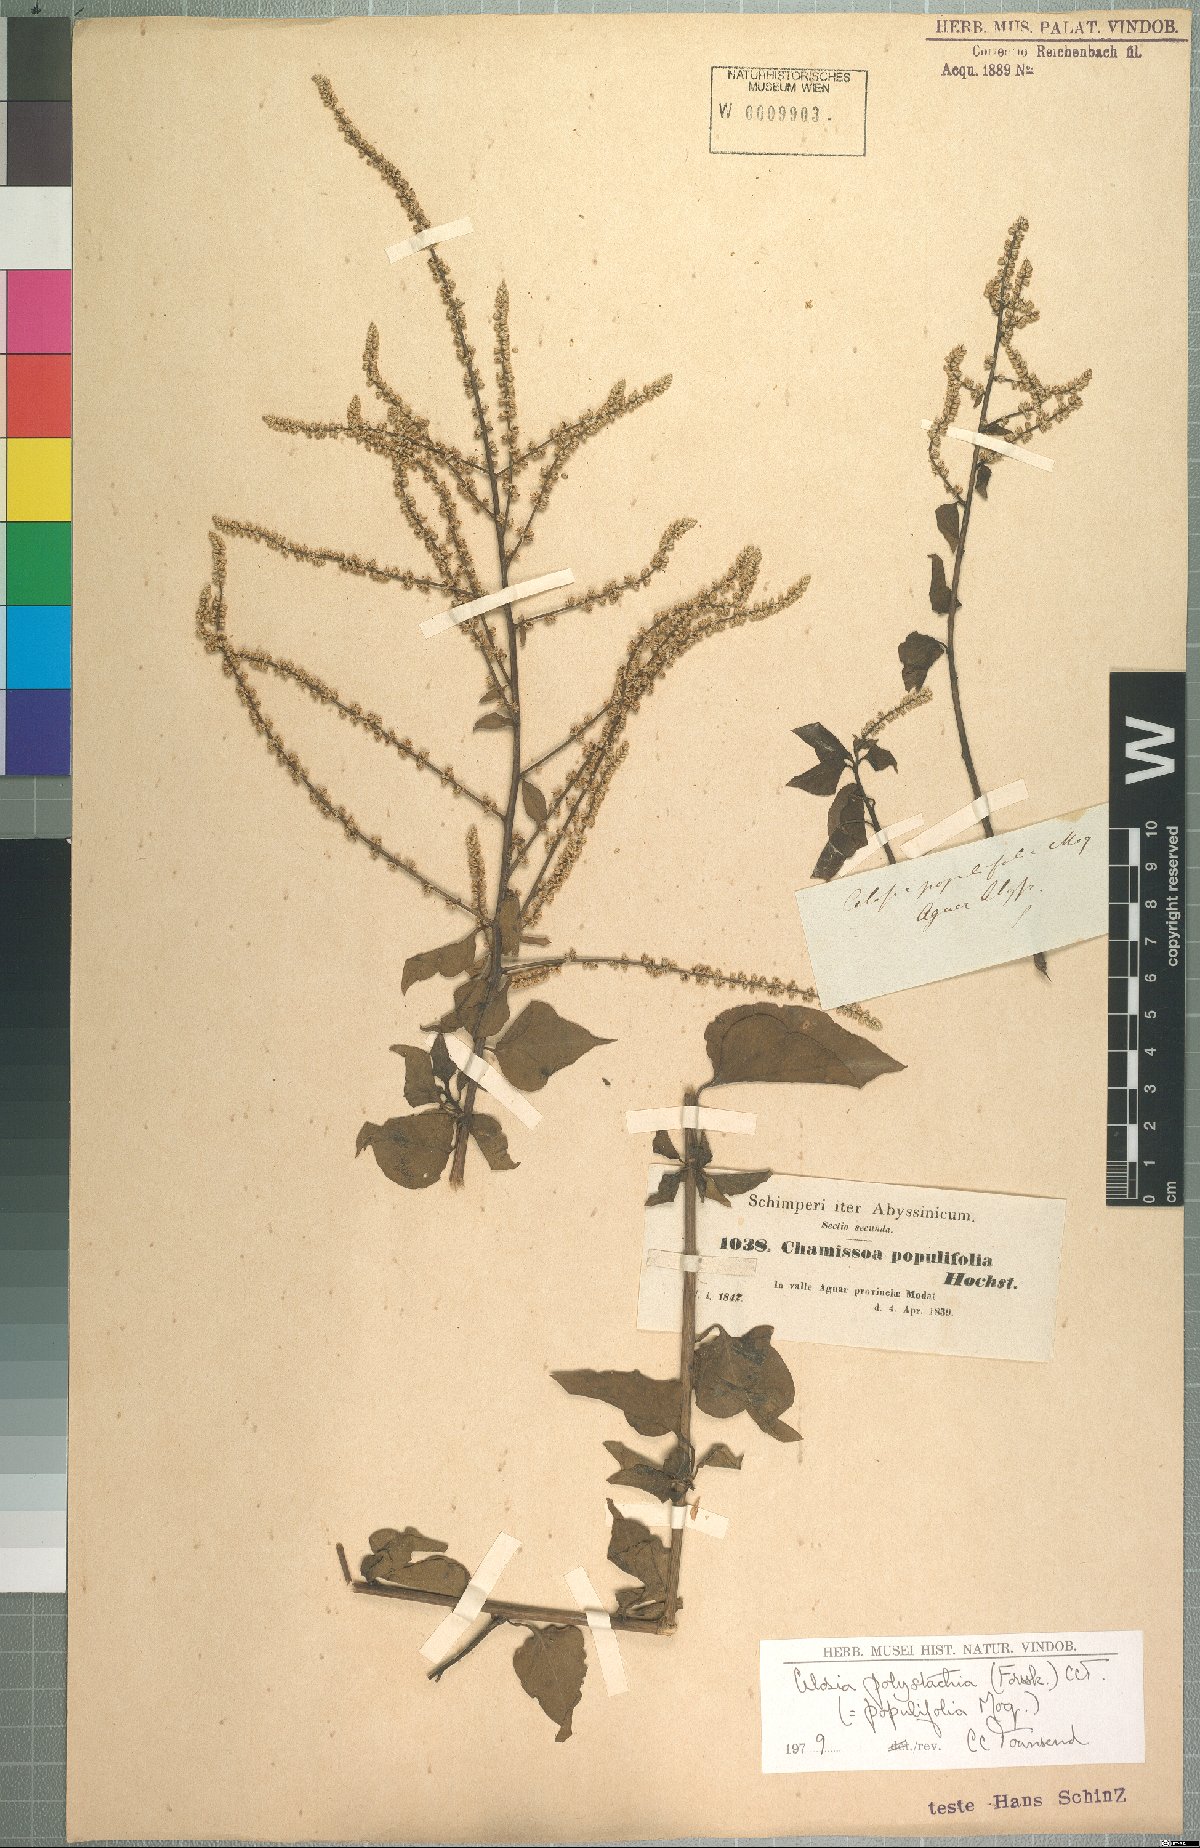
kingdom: Plantae
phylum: Tracheophyta
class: Magnoliopsida
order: Caryophyllales
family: Amaranthaceae
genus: Celosia
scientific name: Celosia polystachya
